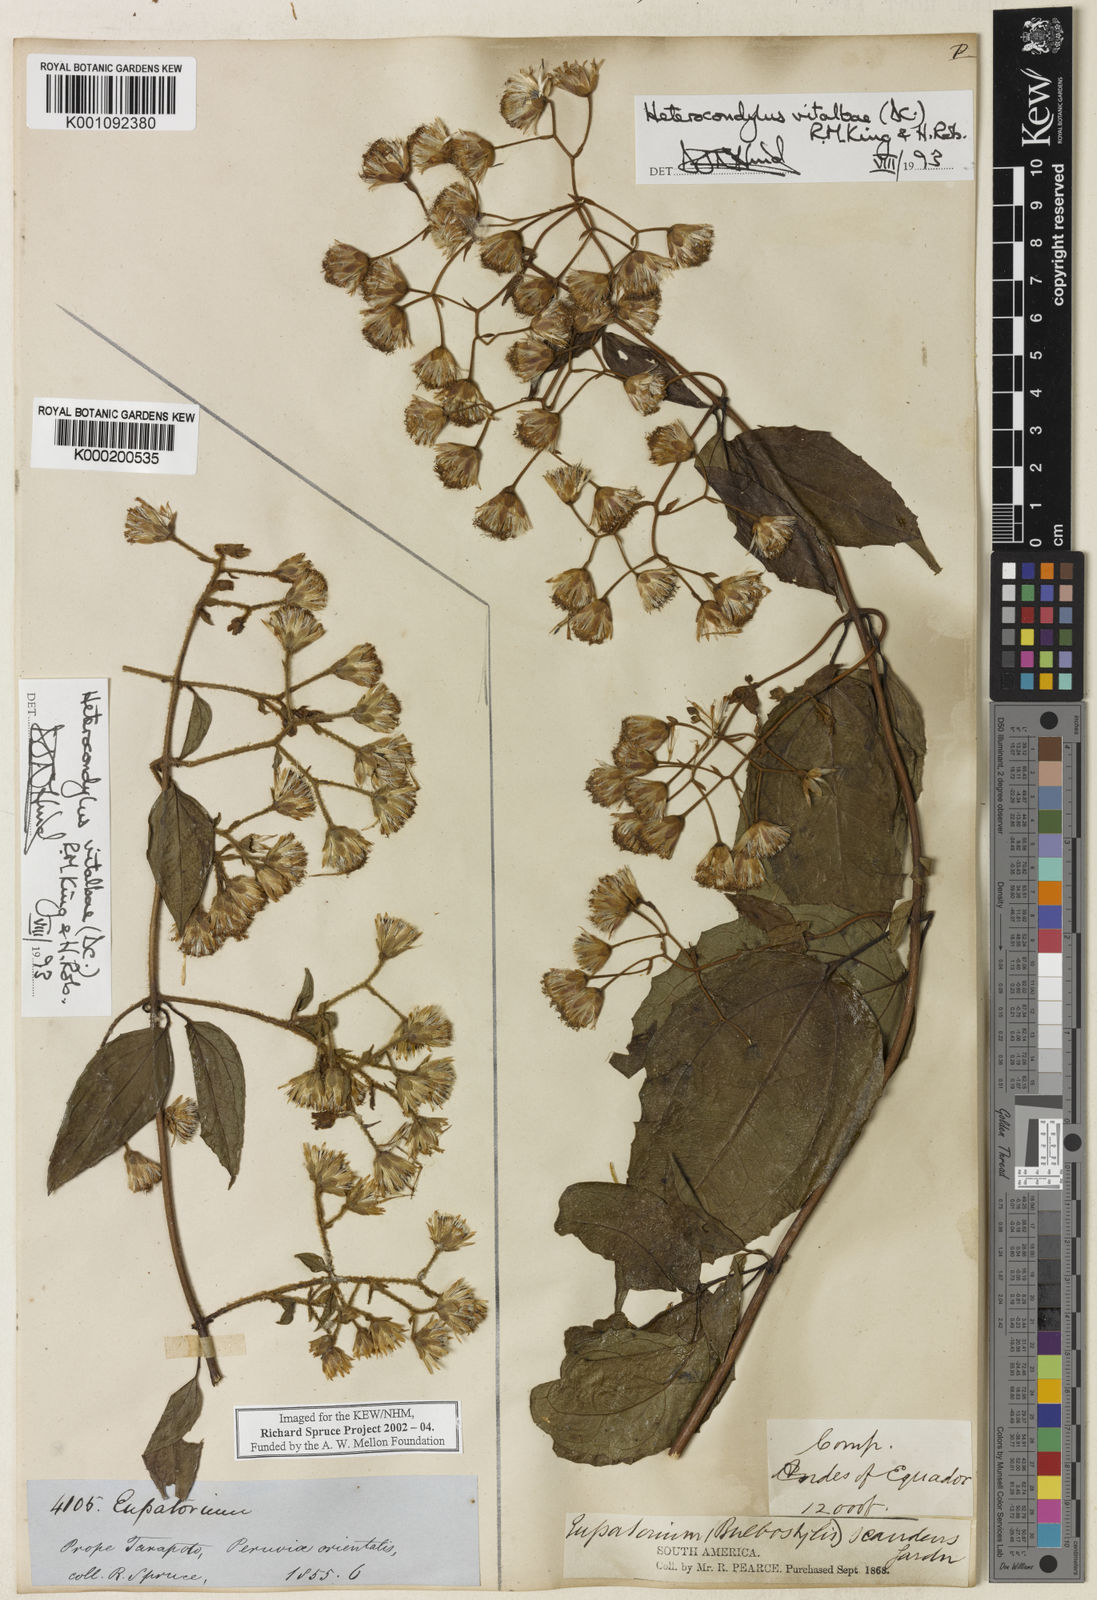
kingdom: Plantae
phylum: Tracheophyta
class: Magnoliopsida
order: Asterales
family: Asteraceae
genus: Heterocondylus
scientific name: Heterocondylus vitalbae
